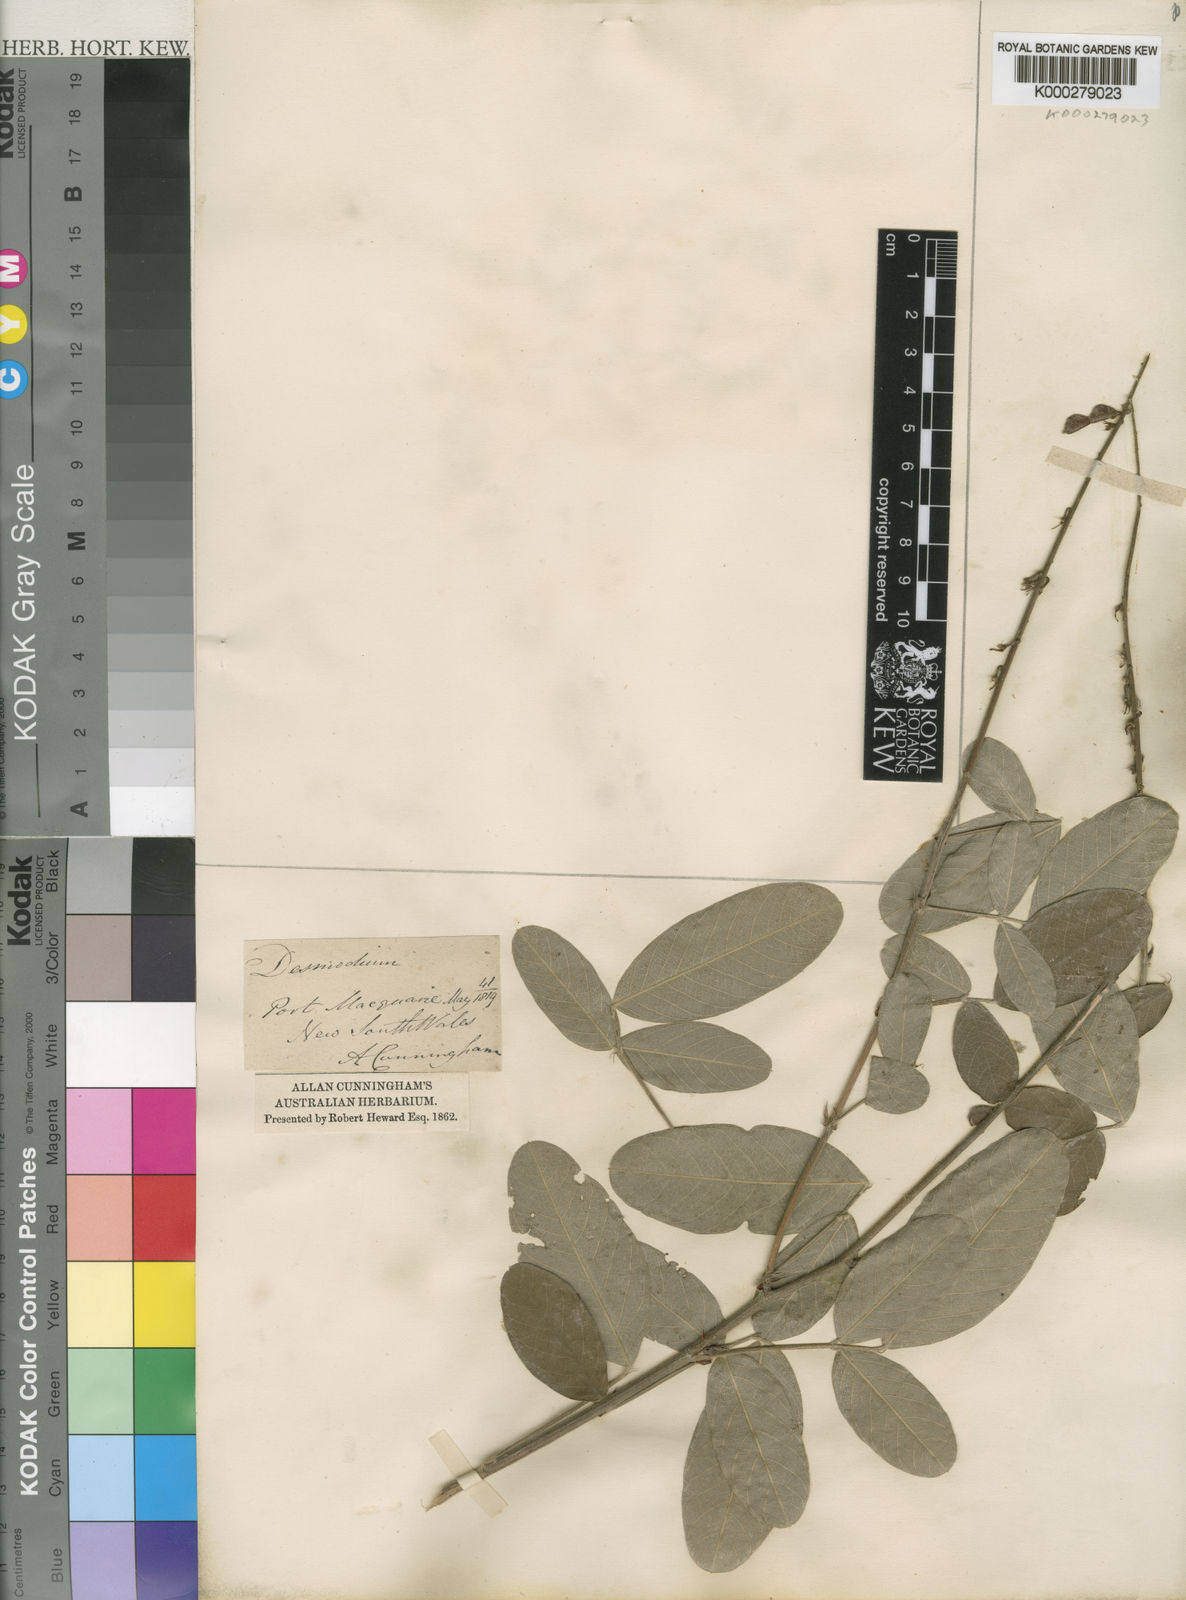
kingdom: Plantae
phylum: Tracheophyta
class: Magnoliopsida
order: Fabales
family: Fabaceae
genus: Desmodium
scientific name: Desmodium
